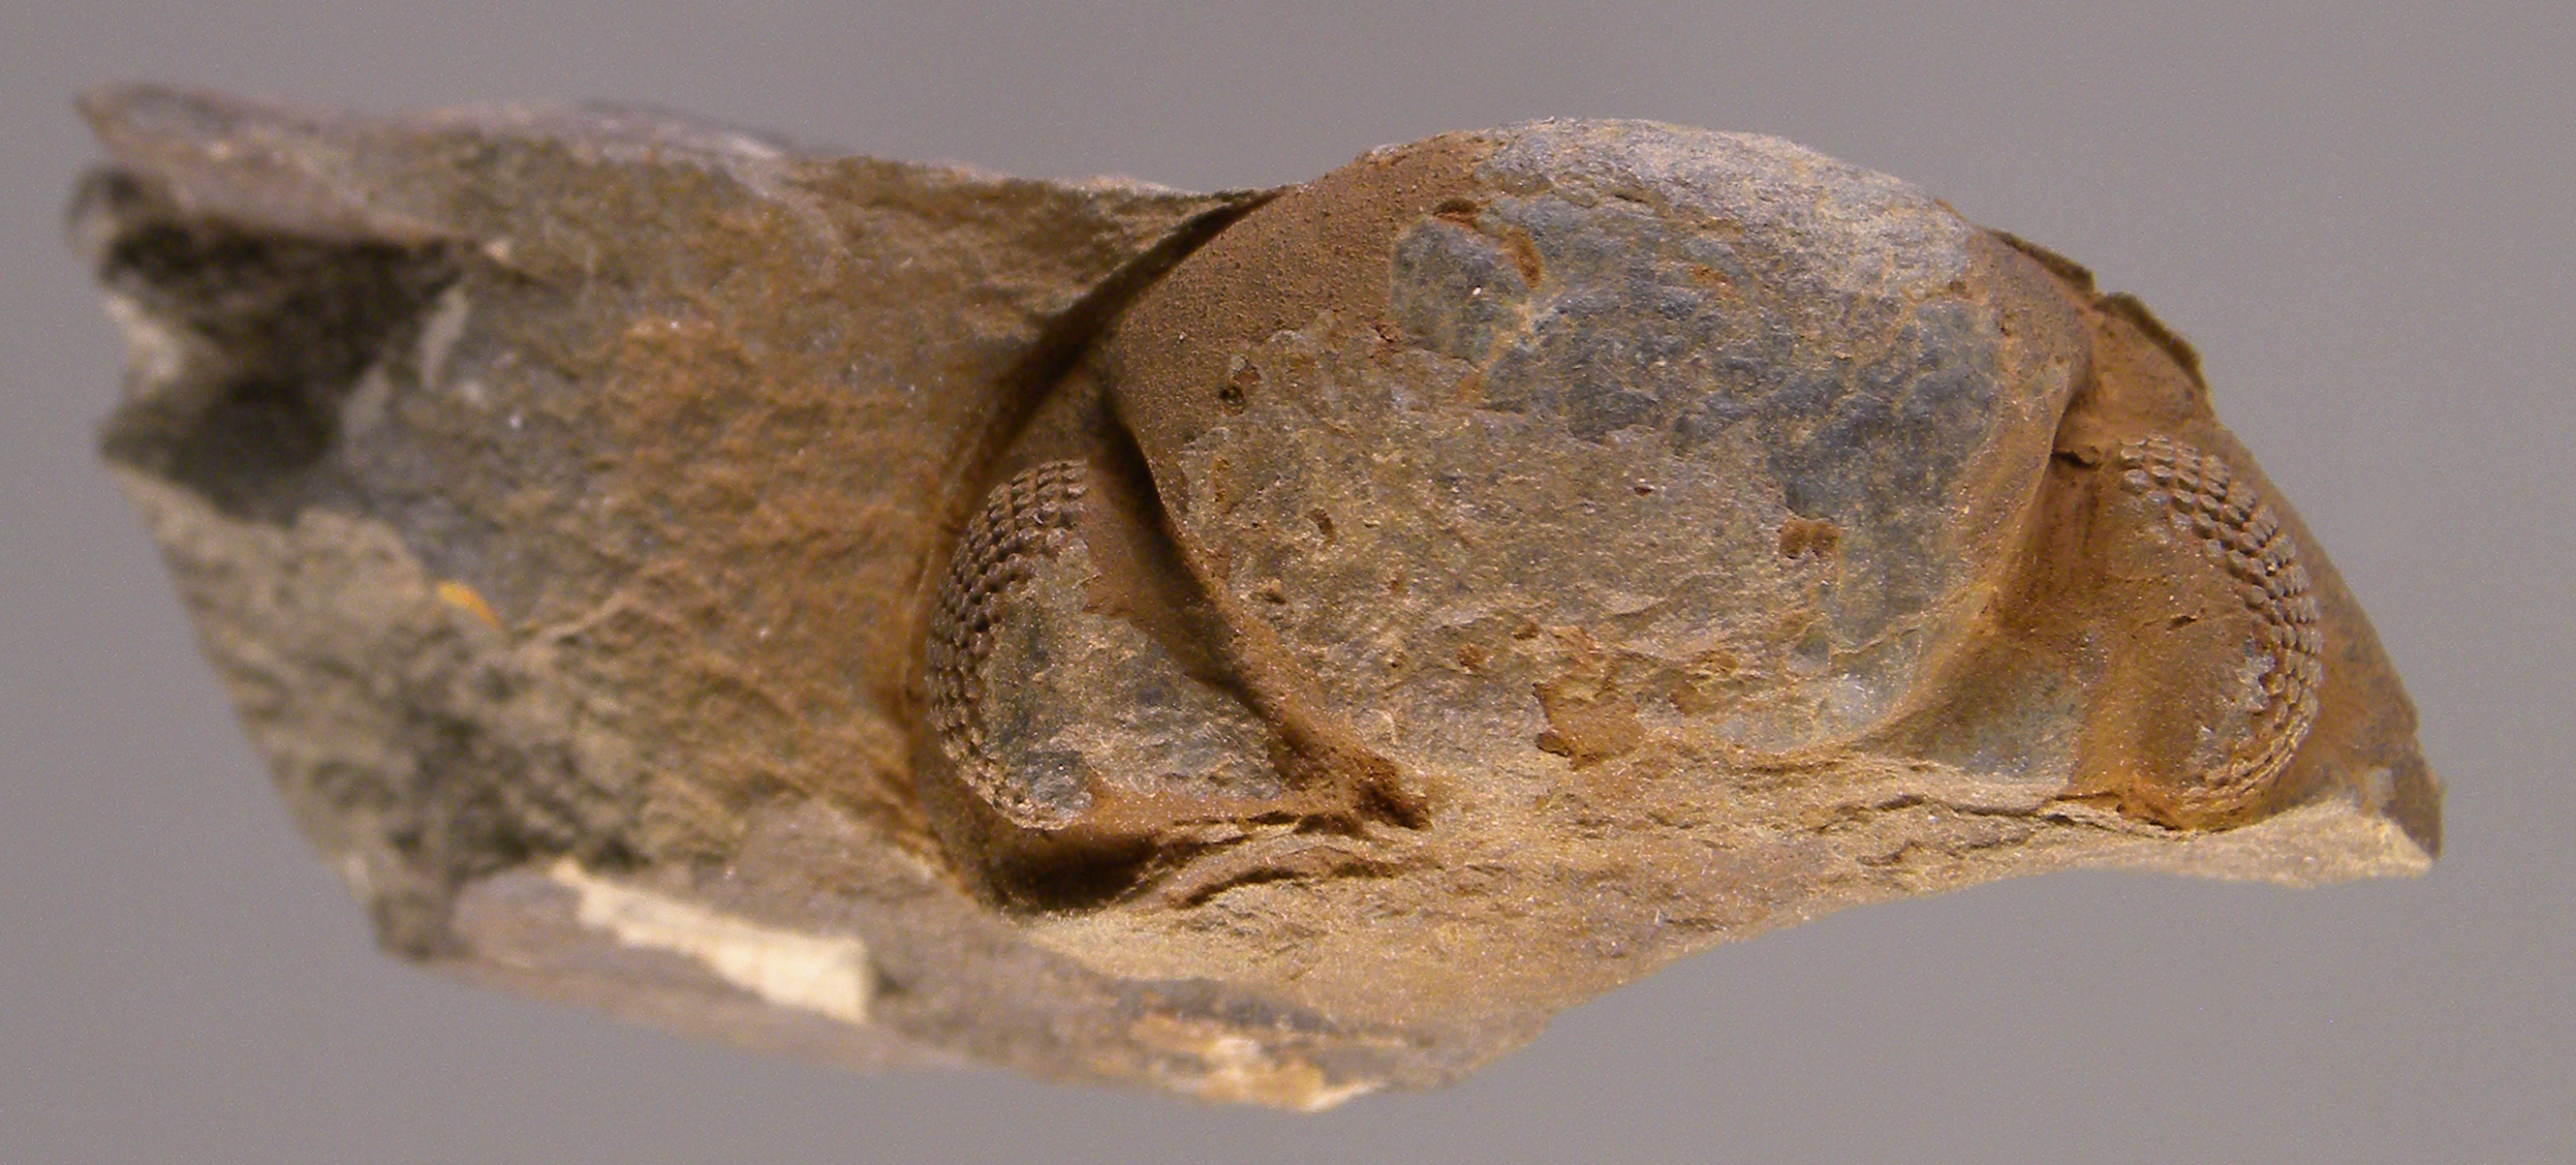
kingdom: Animalia
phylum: Arthropoda
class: Trilobita
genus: Arduennops
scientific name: Arduennops
